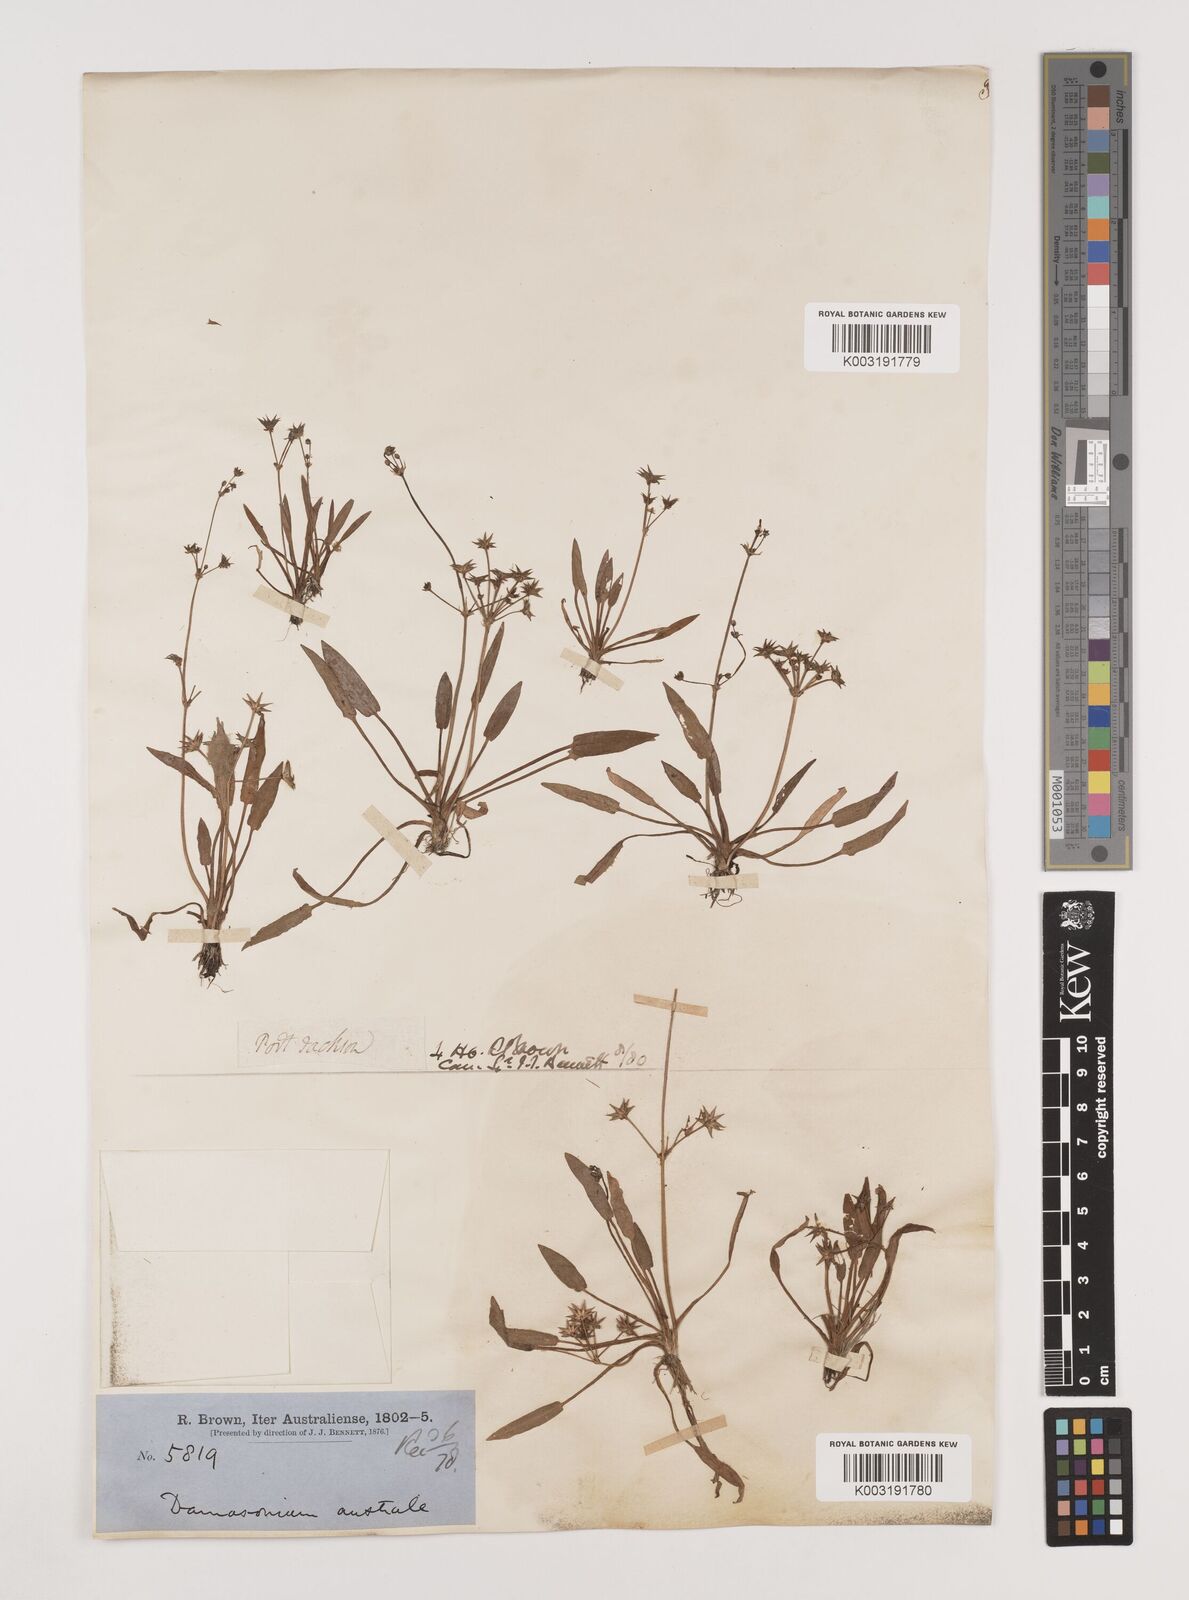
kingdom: Plantae
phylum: Tracheophyta
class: Liliopsida
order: Alismatales
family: Alismataceae
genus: Damasonium
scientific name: Damasonium minus
